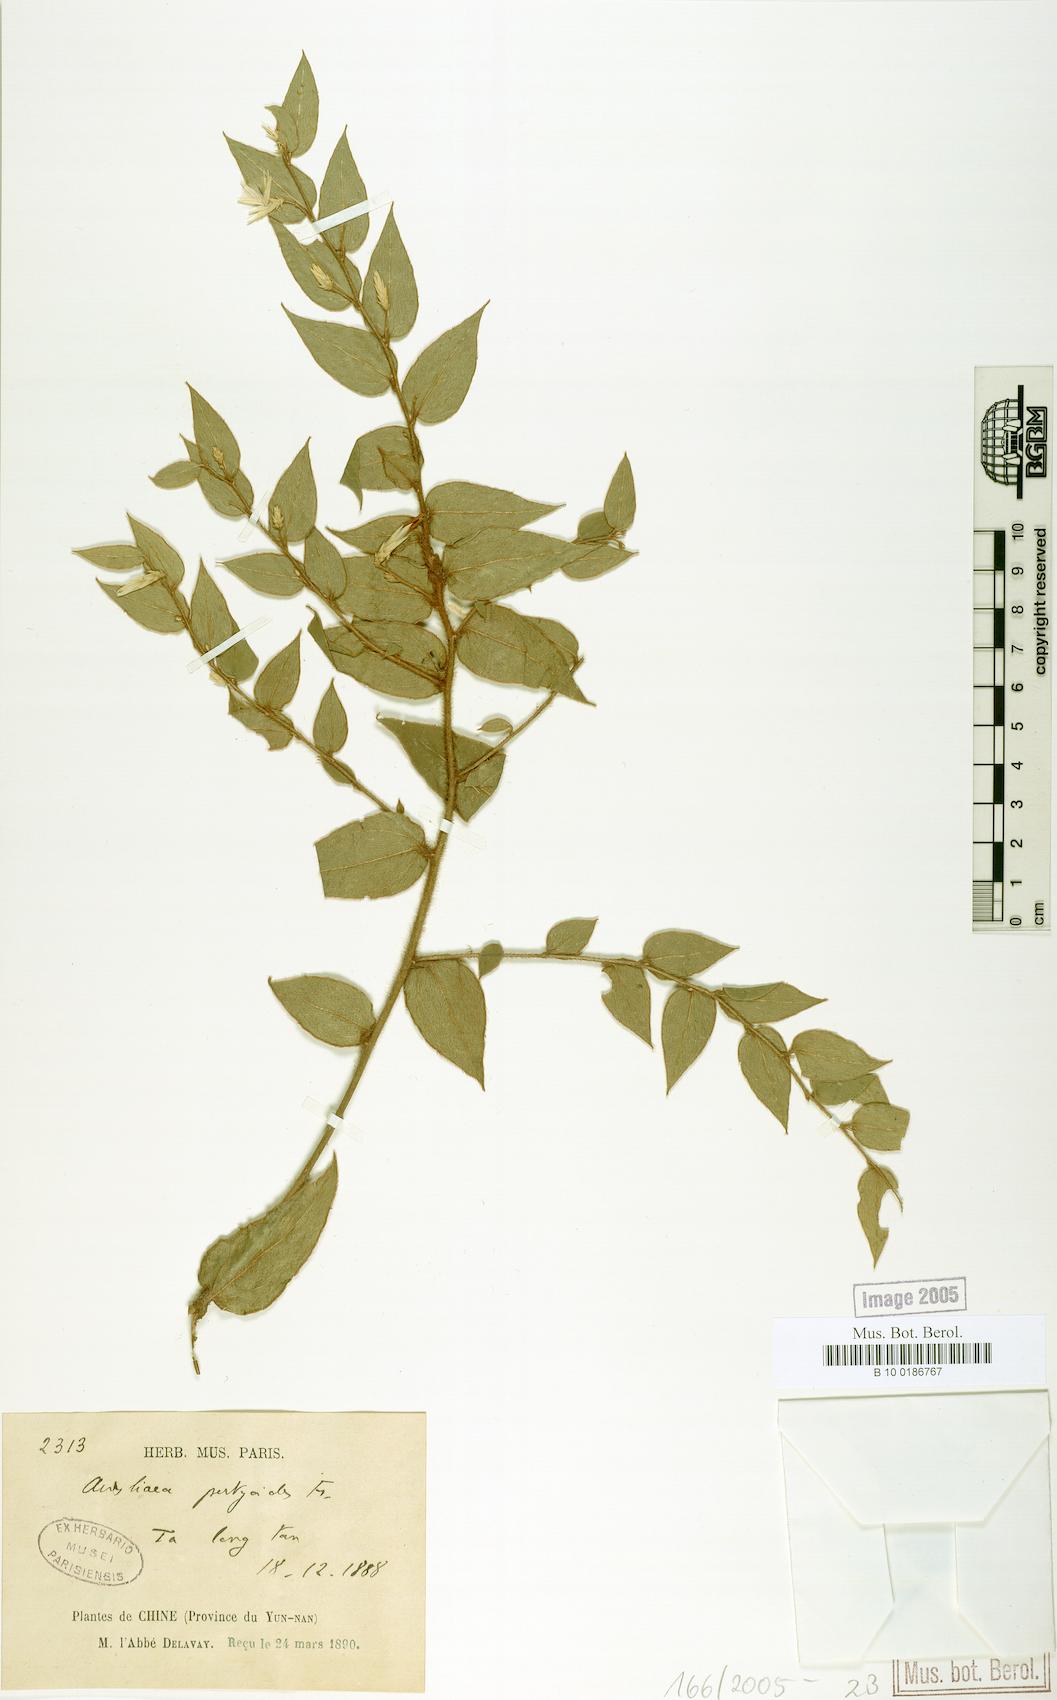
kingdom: Plantae
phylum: Tracheophyta
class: Magnoliopsida
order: Asterales
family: Asteraceae
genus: Ainsliaea
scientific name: Ainsliaea pertyoides
